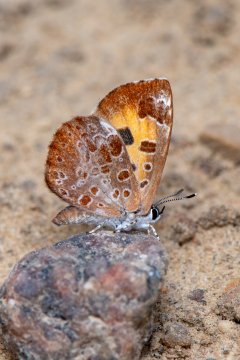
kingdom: Animalia
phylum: Arthropoda
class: Insecta
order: Lepidoptera
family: Lycaenidae
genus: Feniseca
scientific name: Feniseca tarquinius
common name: Harvester
